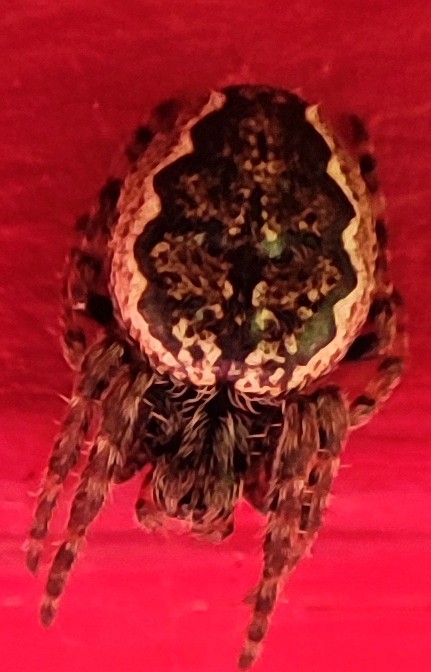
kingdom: Animalia
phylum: Arthropoda
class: Arachnida
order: Araneae
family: Araneidae
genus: Nuctenea
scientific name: Nuctenea umbratica
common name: Flad hjulspinder
